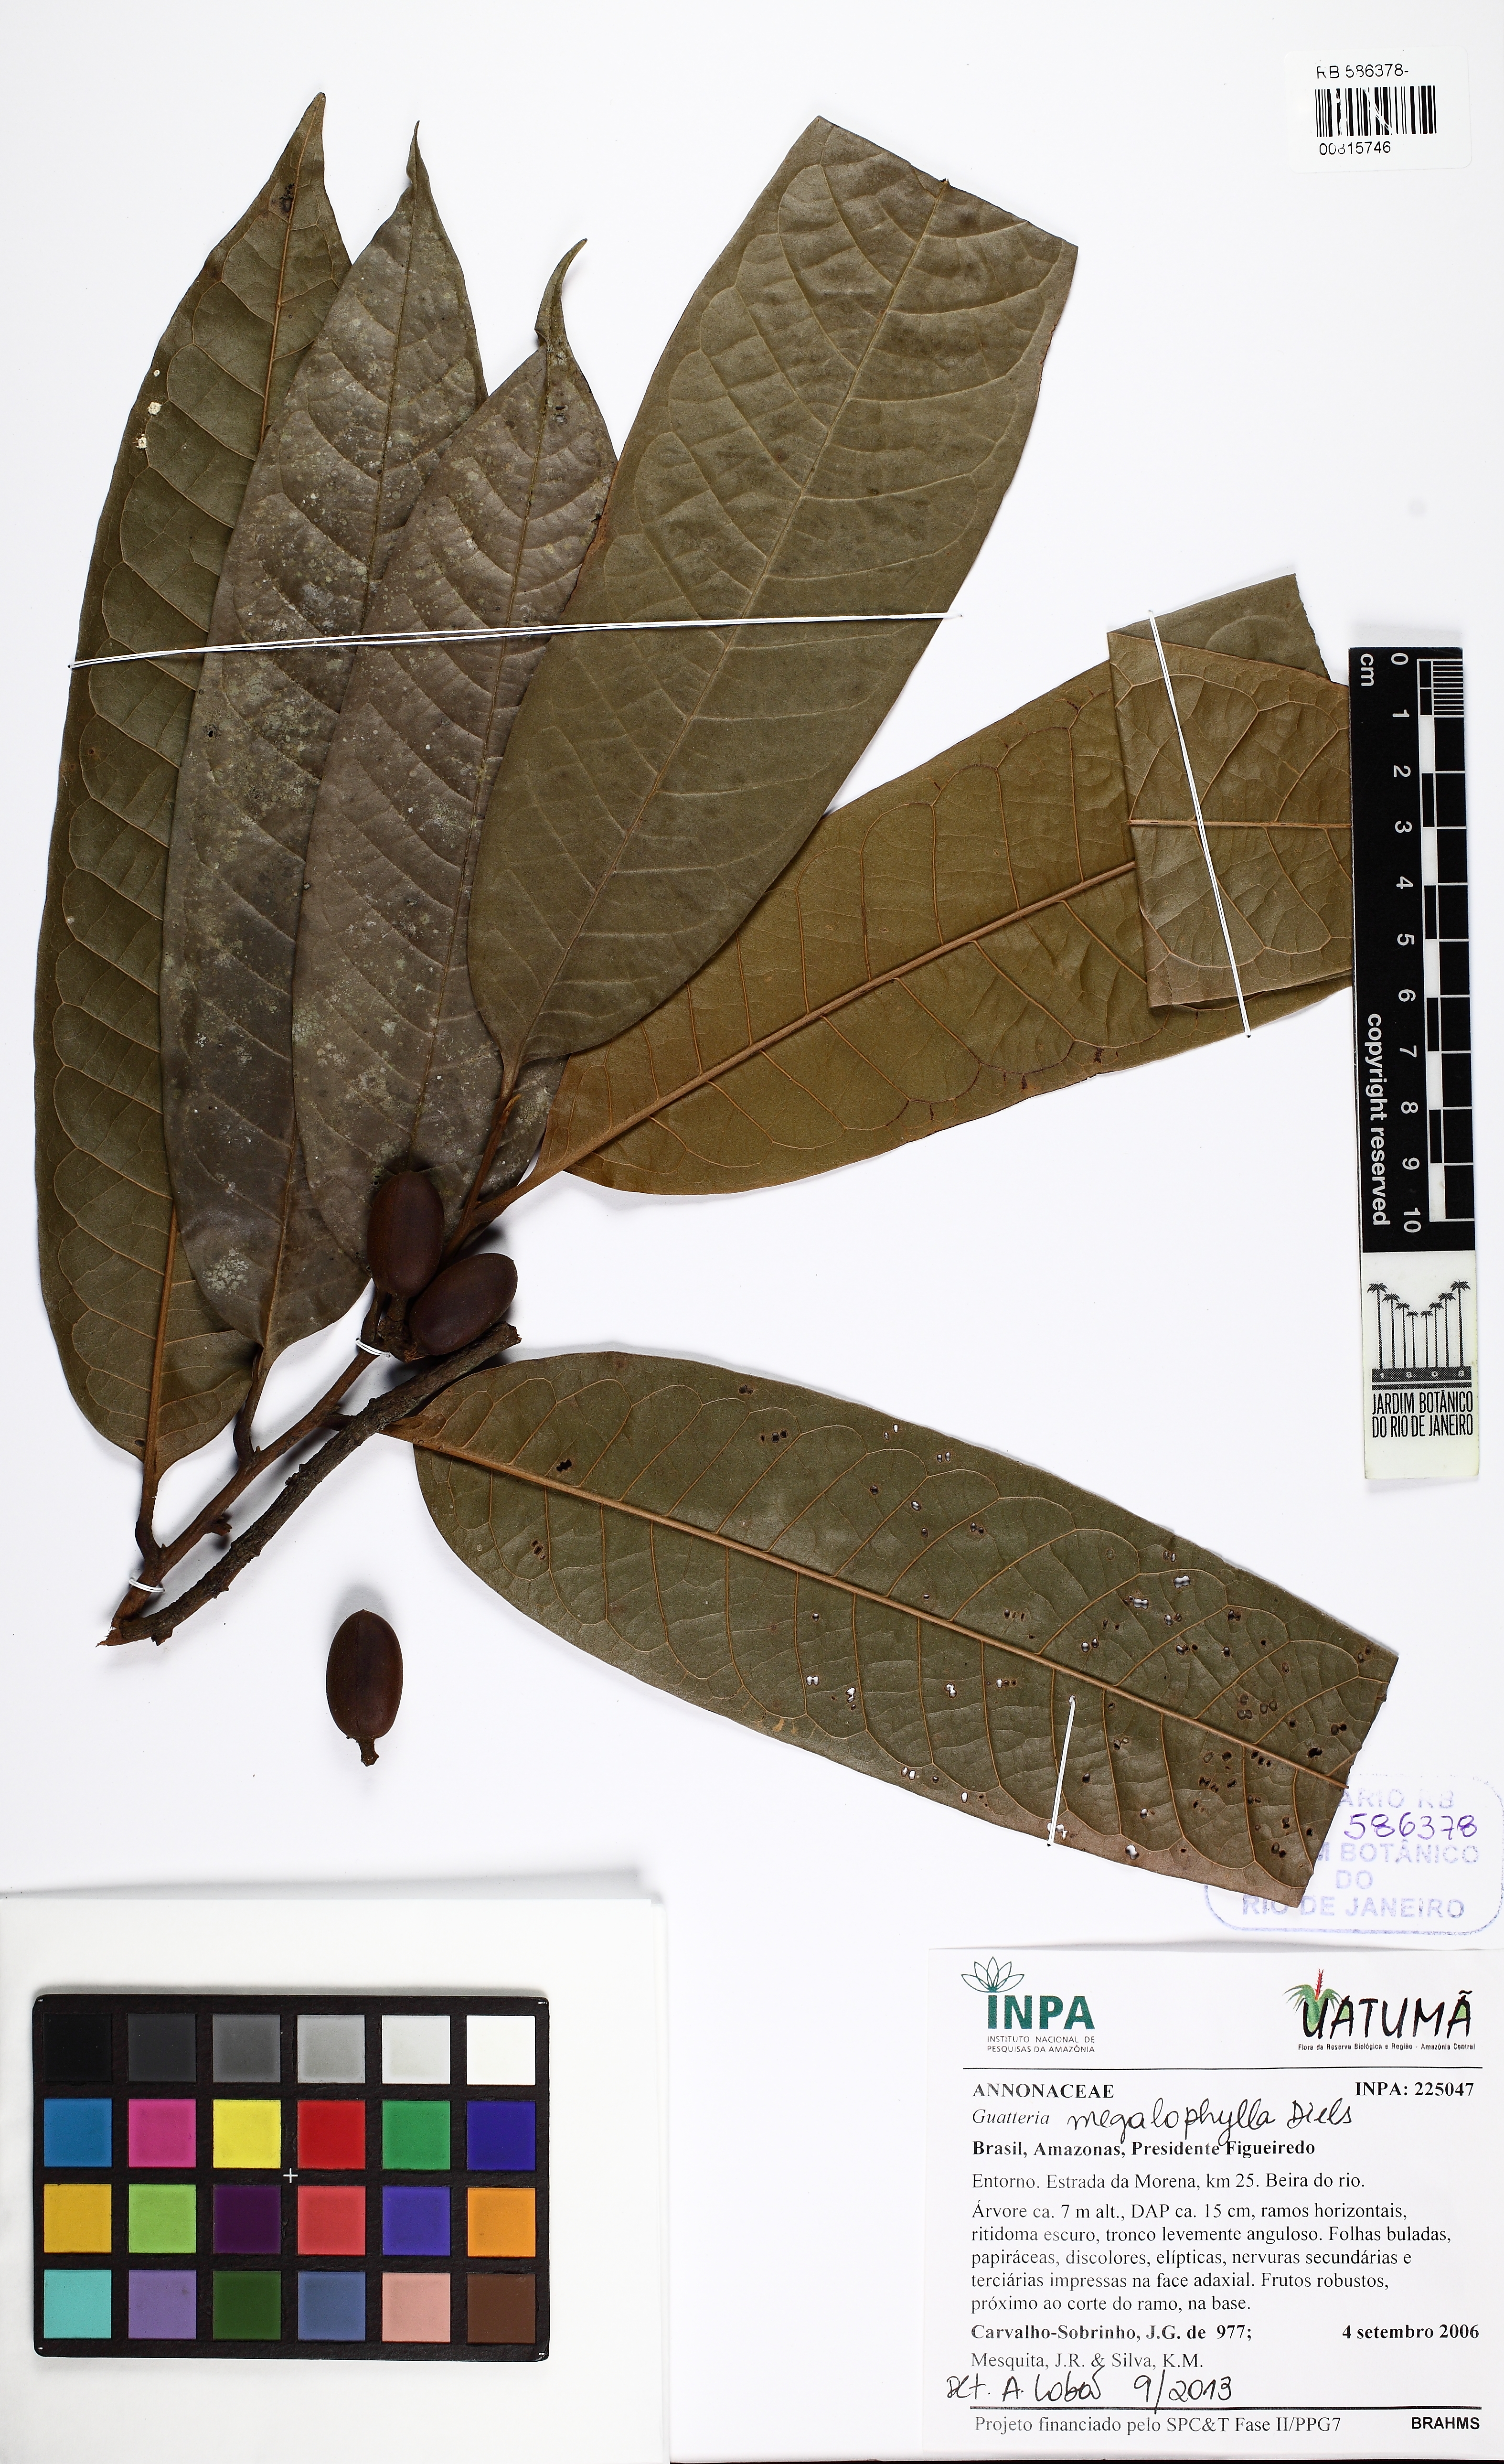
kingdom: Plantae
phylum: Tracheophyta
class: Magnoliopsida
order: Magnoliales
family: Annonaceae
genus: Guatteria
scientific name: Guatteria megalophylla
